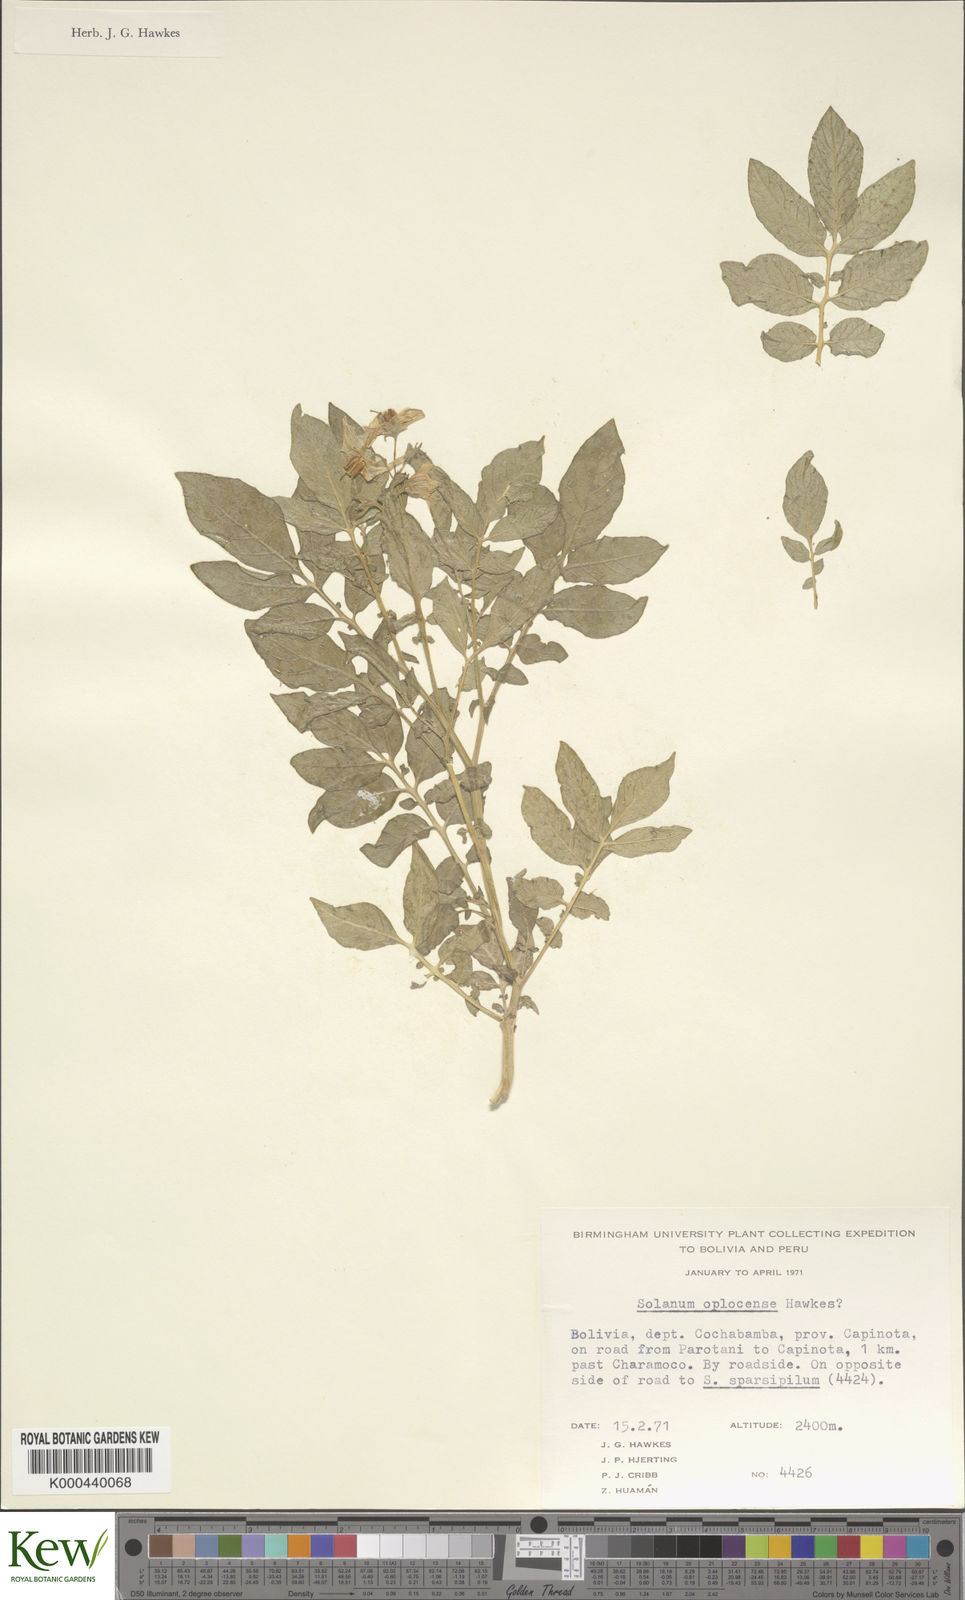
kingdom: Plantae
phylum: Tracheophyta
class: Magnoliopsida
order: Solanales
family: Solanaceae
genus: Solanum
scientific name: Solanum brevicaule
